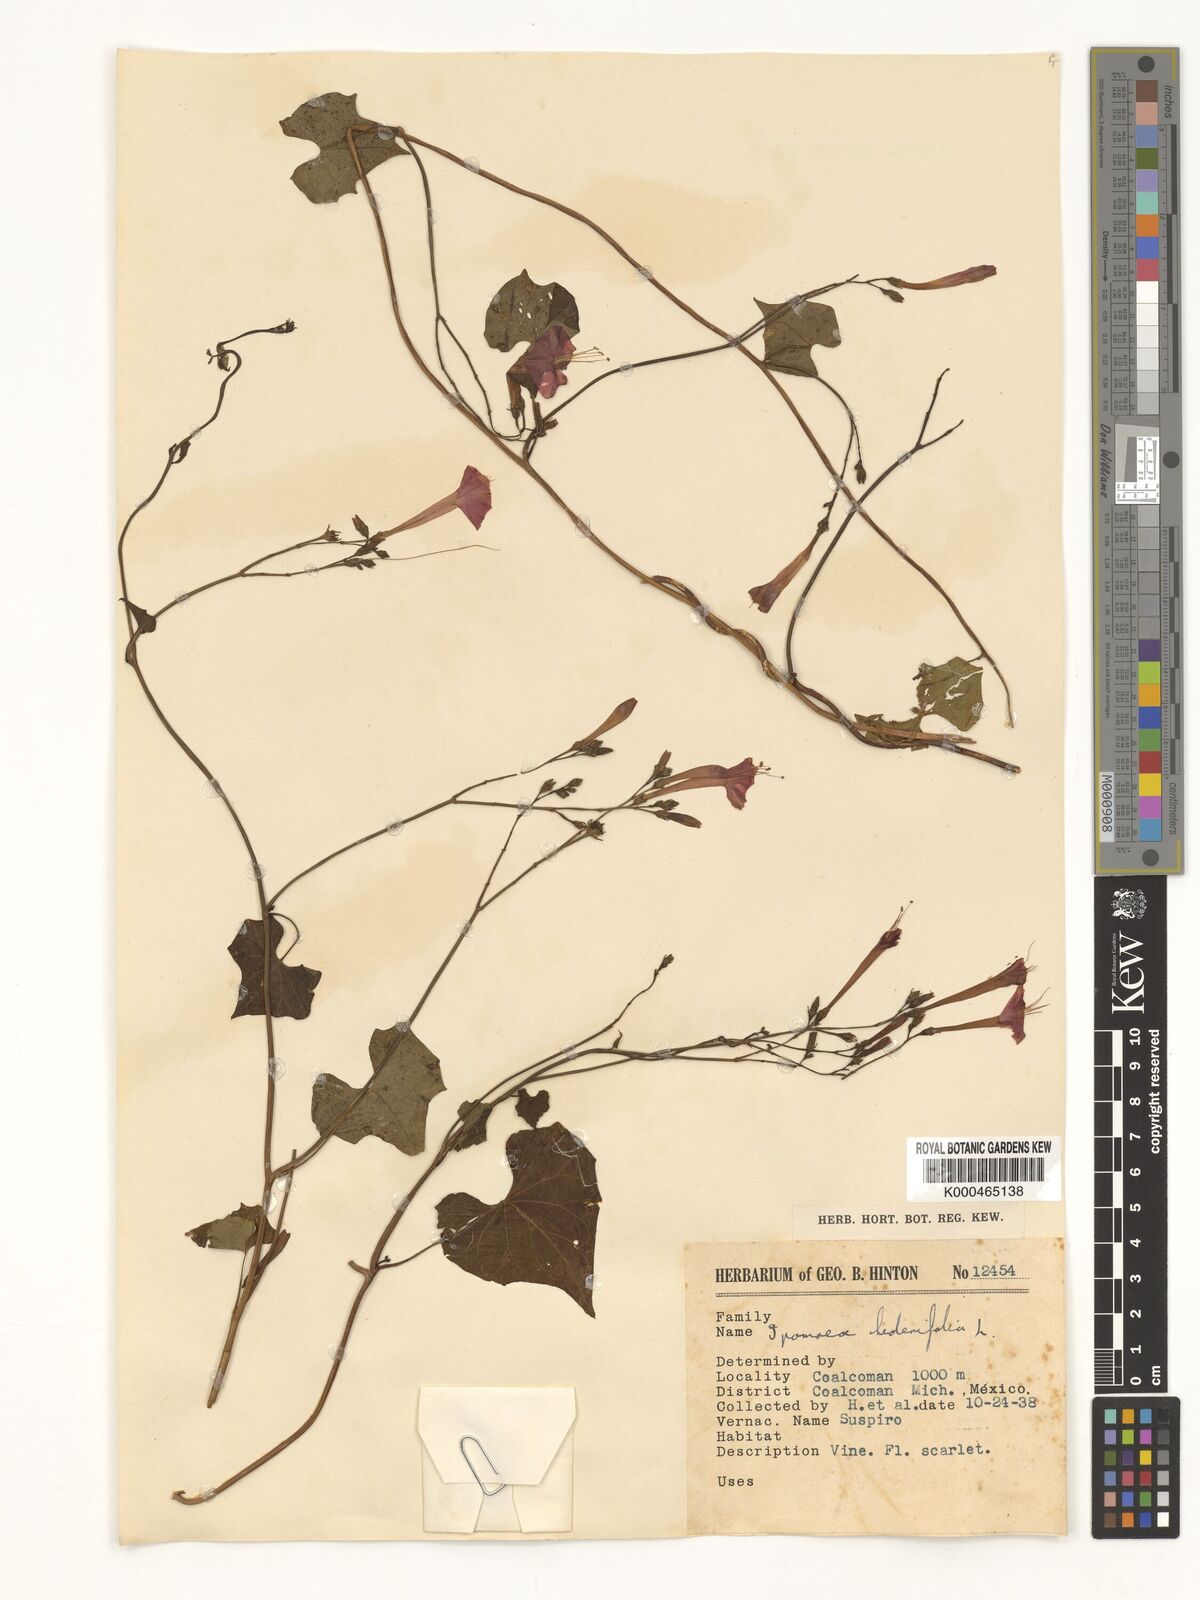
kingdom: Plantae
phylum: Tracheophyta
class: Magnoliopsida
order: Solanales
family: Convolvulaceae
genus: Ipomoea
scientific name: Ipomoea hederifolia
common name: Ivy-leaf morning-glory
